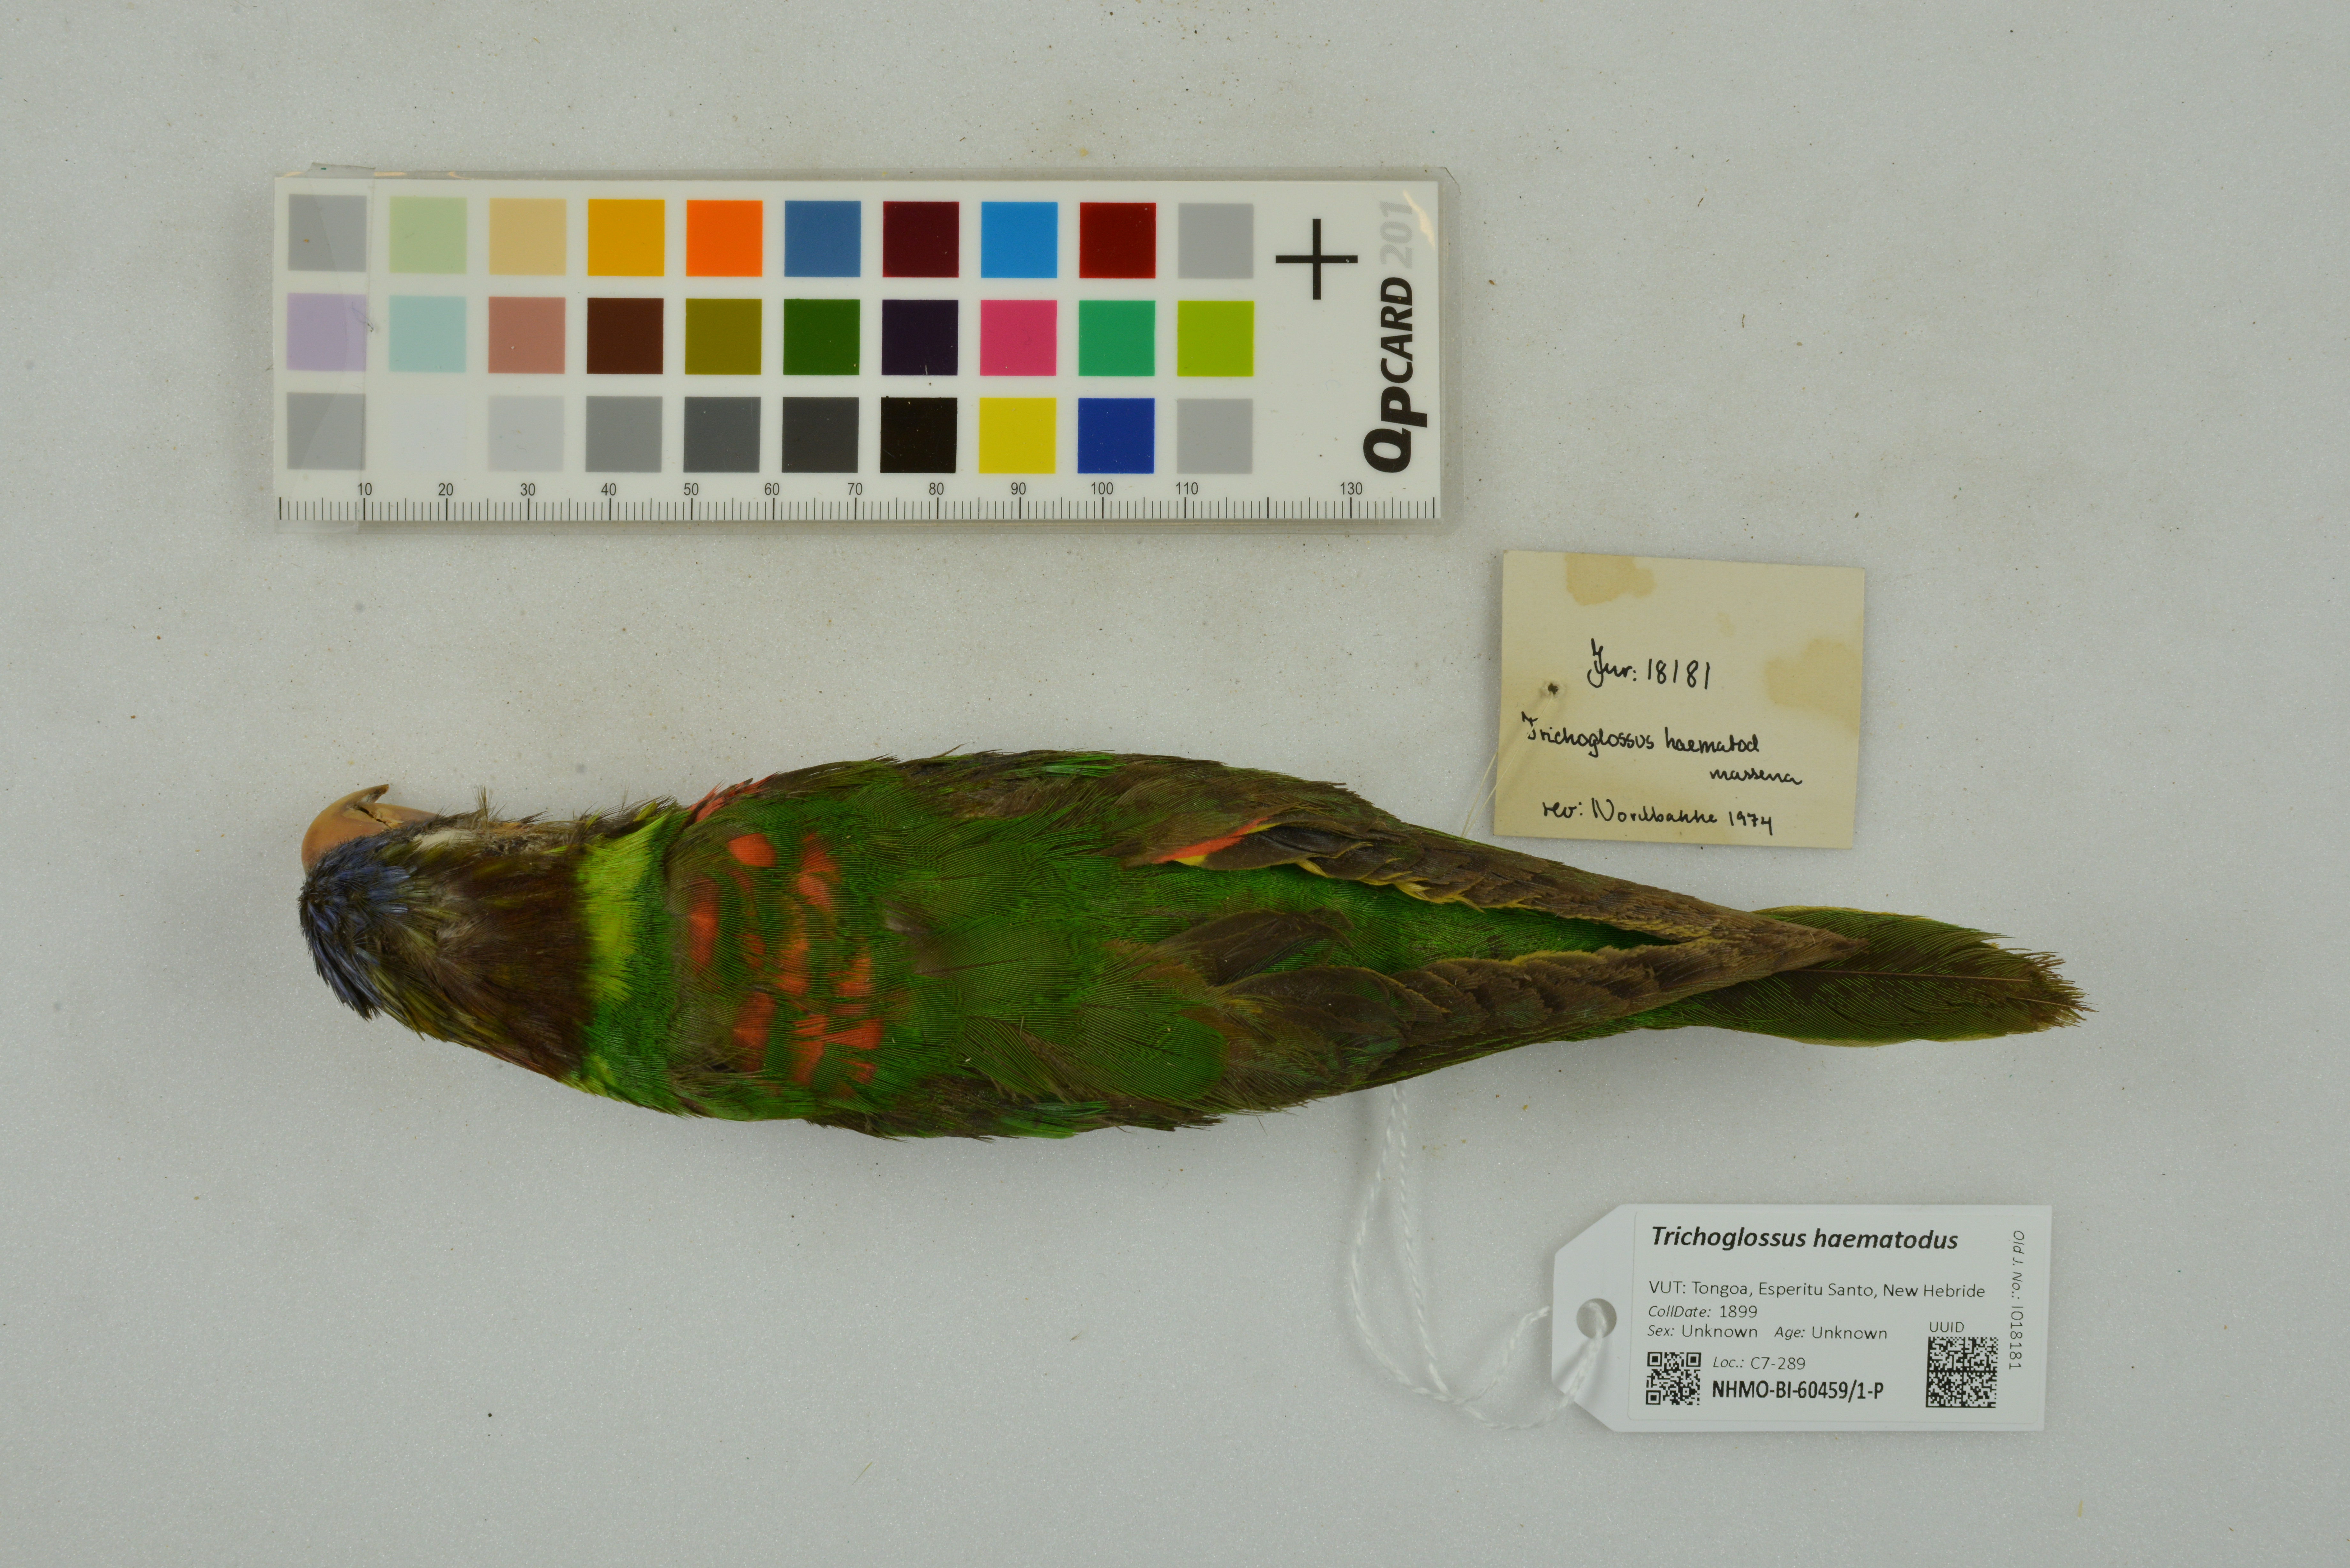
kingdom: Animalia
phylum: Chordata
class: Aves
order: Psittaciformes
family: Psittacidae
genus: Trichoglossus
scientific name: Trichoglossus haematodus
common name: Coconut lorikeet
